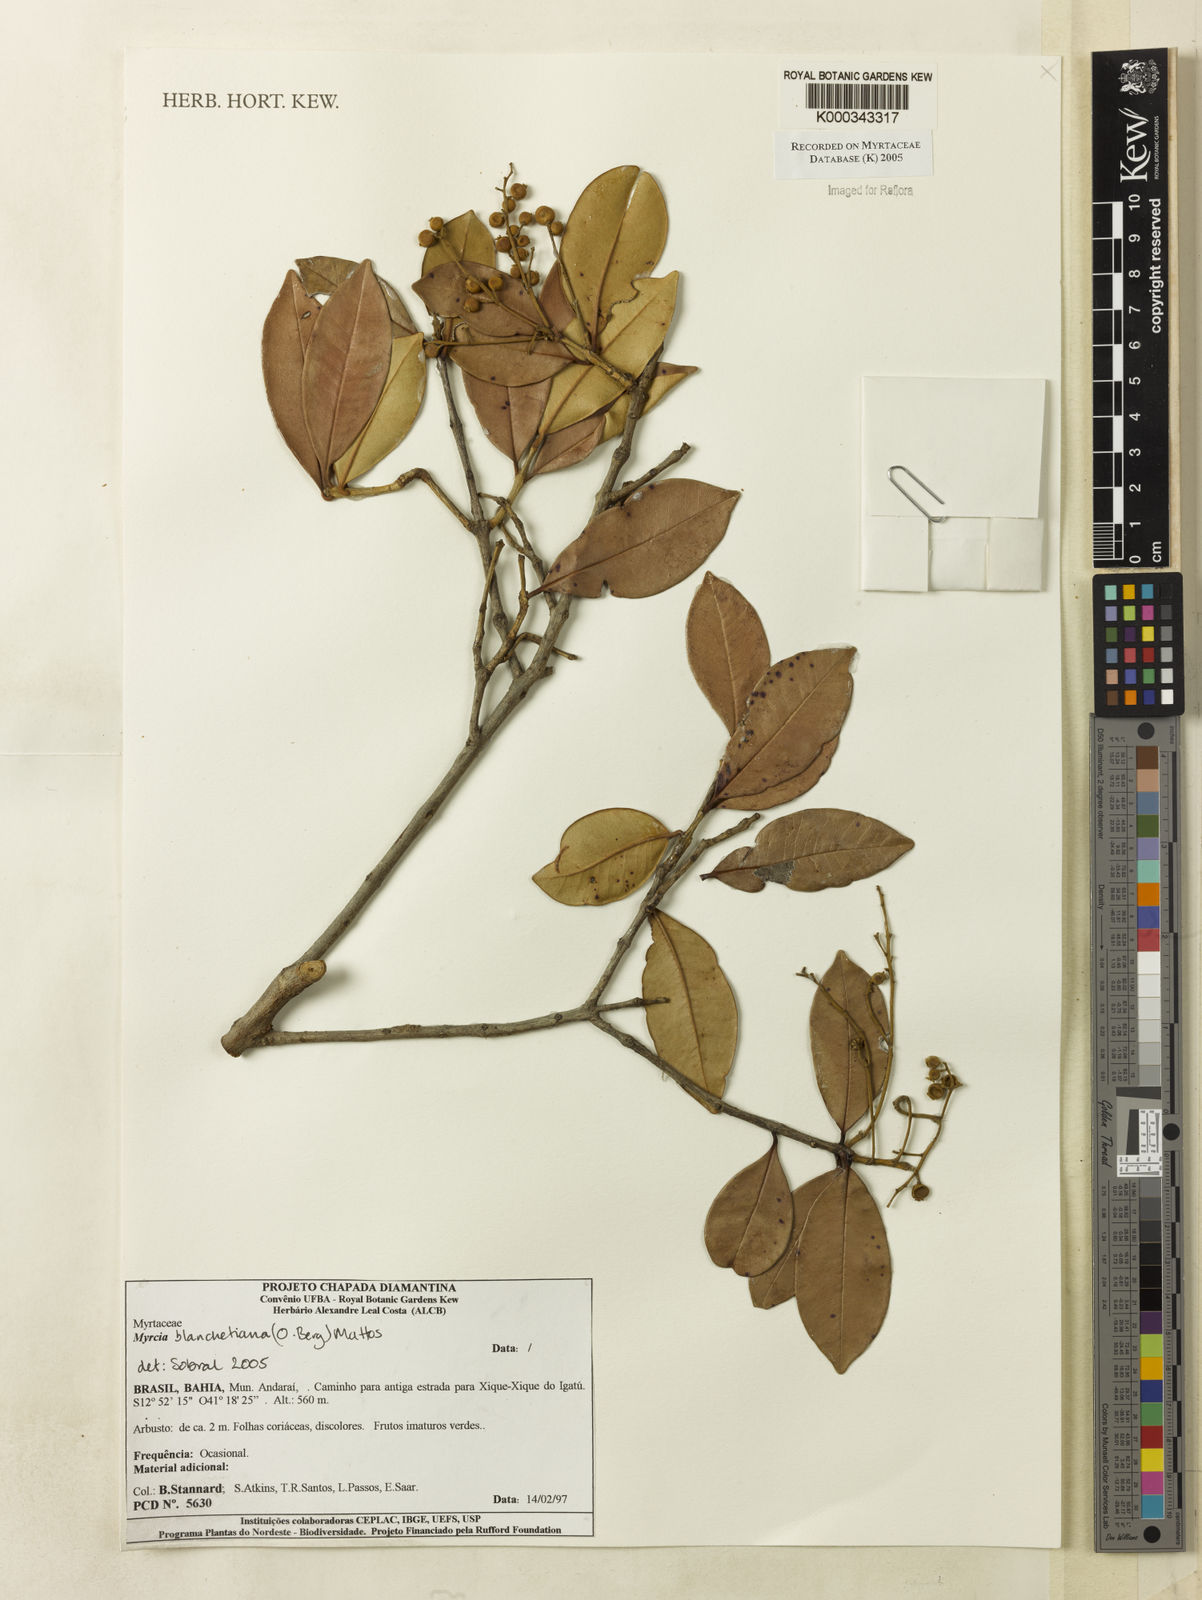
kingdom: Plantae
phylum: Tracheophyta
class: Magnoliopsida
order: Myrtales
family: Myrtaceae
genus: Myrcia
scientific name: Myrcia blanchetiana
